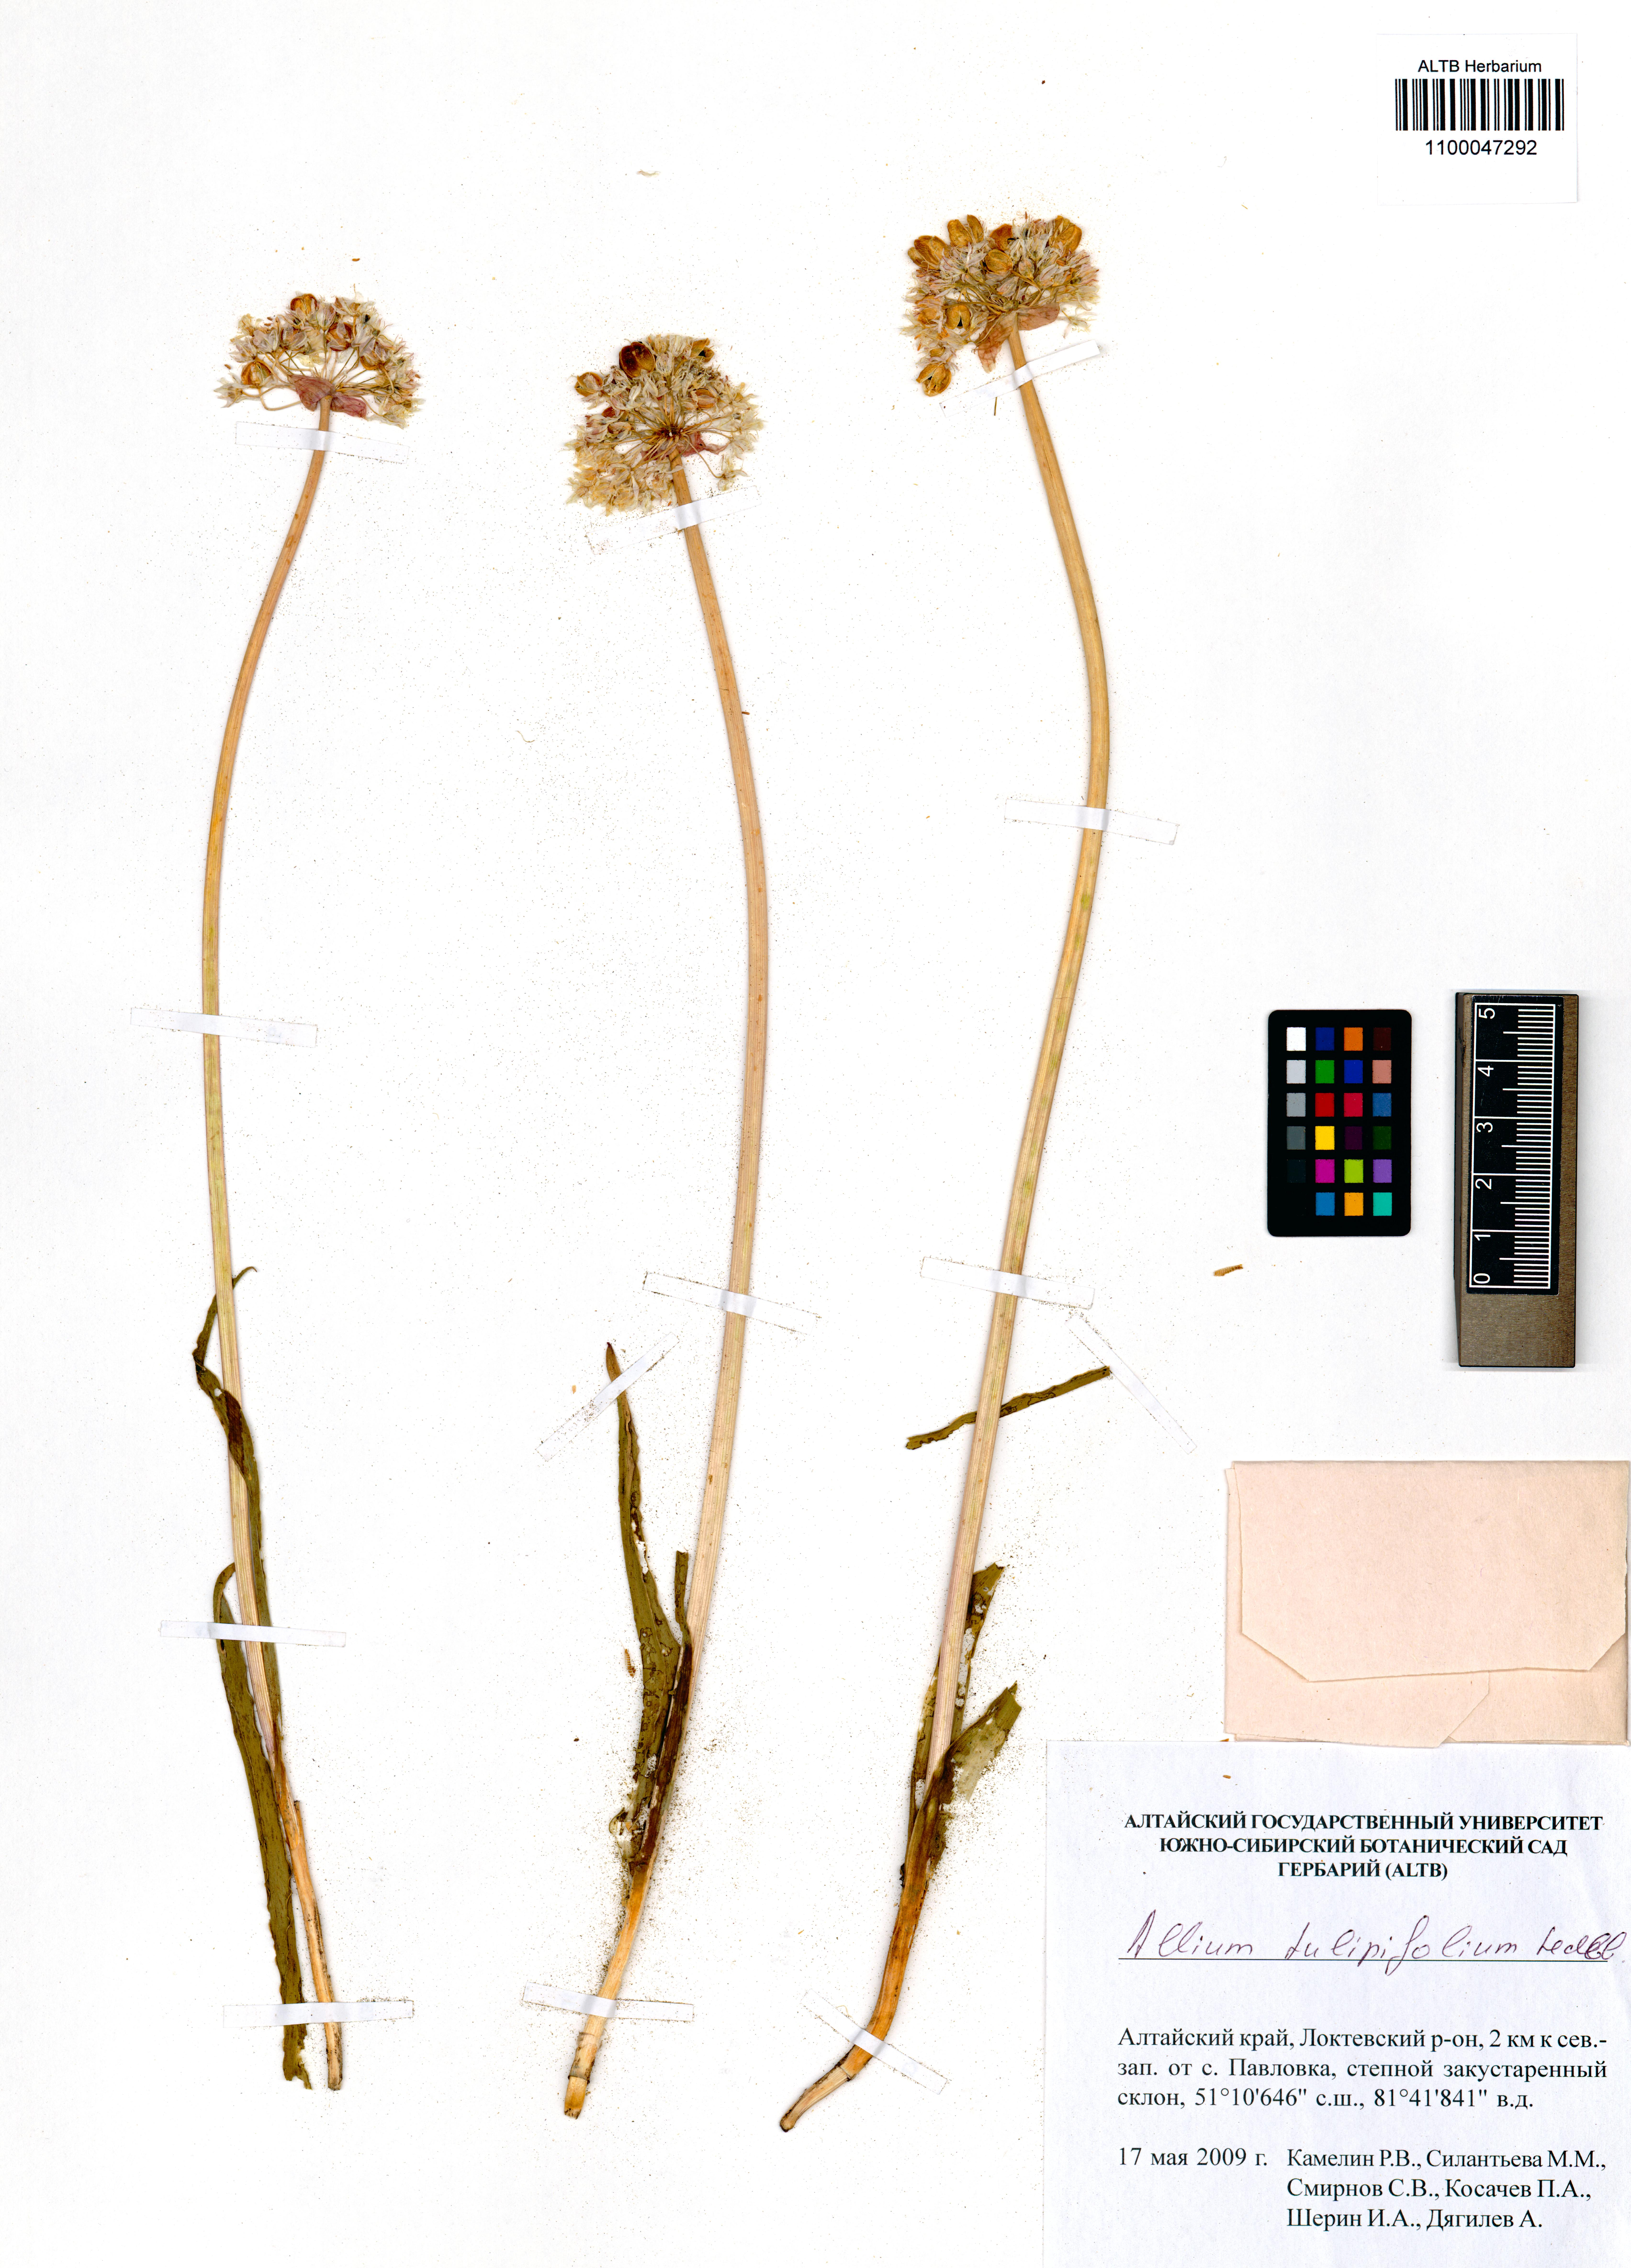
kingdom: Plantae
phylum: Tracheophyta
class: Liliopsida
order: Asparagales
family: Amaryllidaceae
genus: Allium
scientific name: Allium tulipifolium
